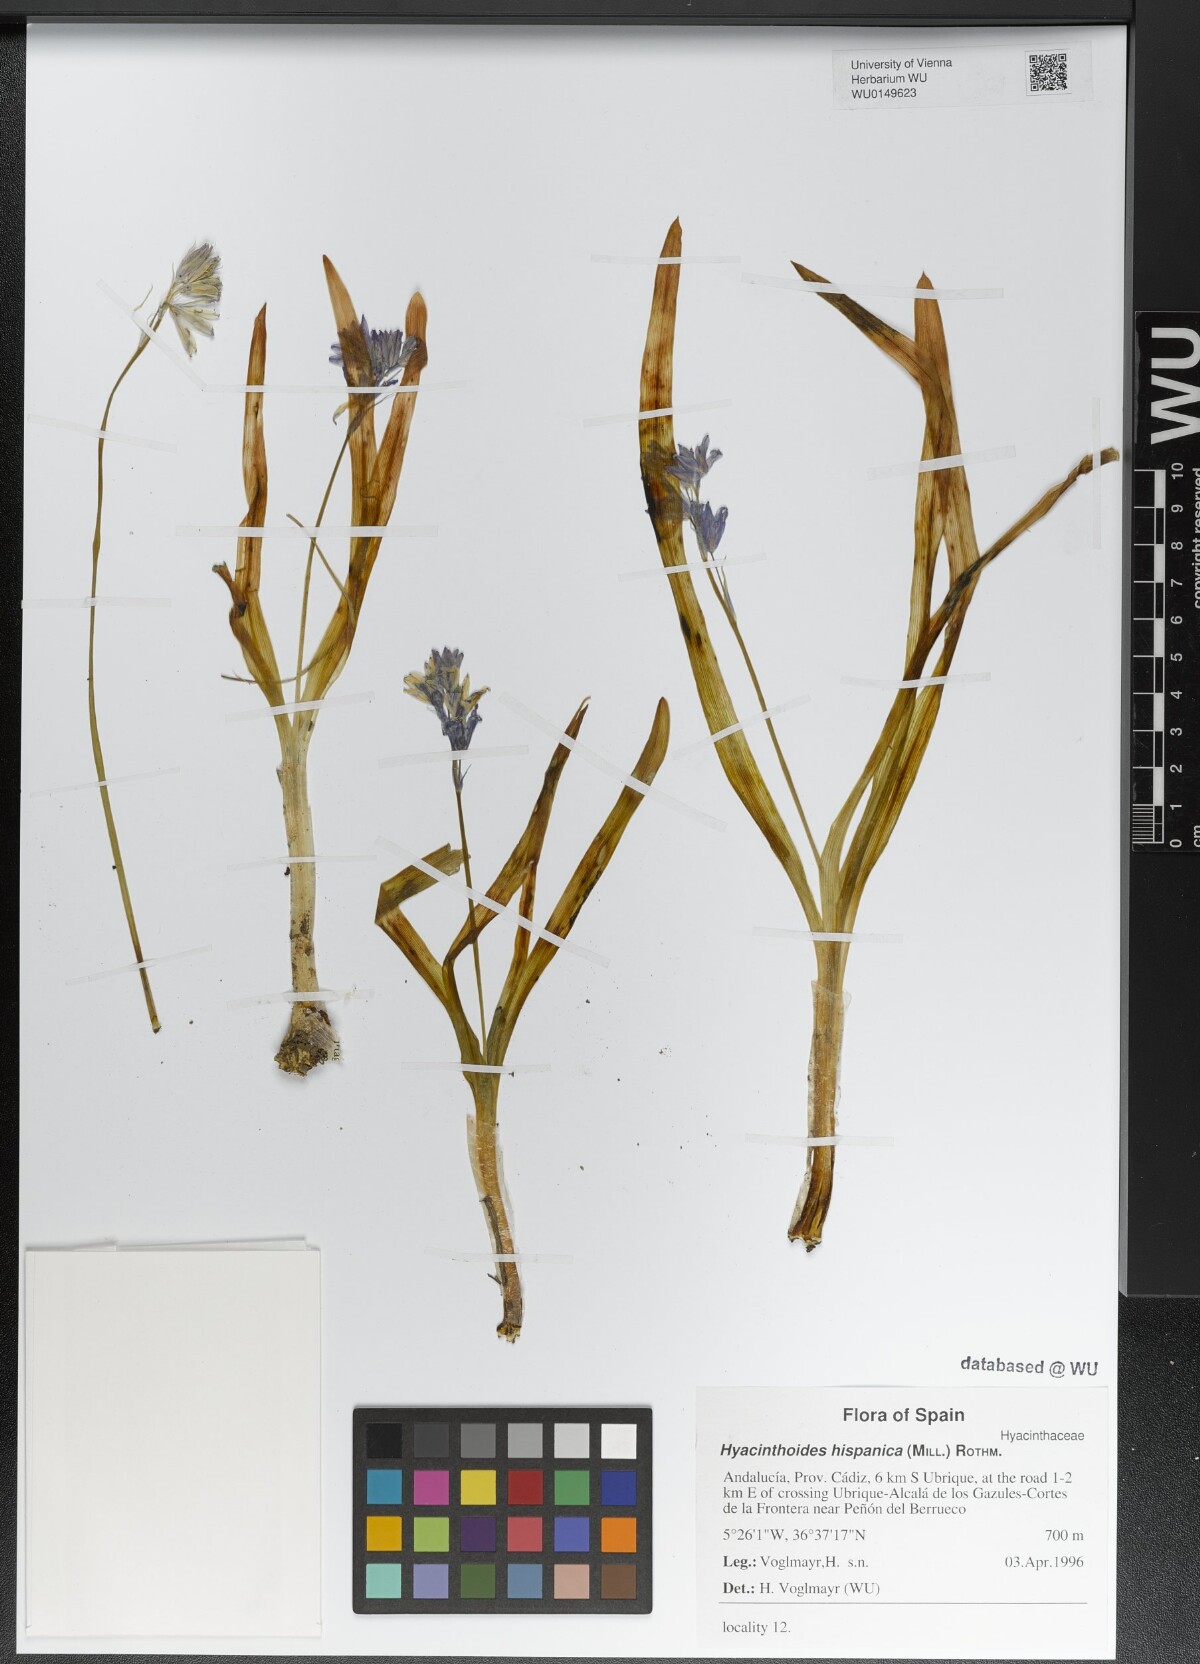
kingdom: Plantae
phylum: Tracheophyta
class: Liliopsida
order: Asparagales
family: Asparagaceae
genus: Hyacinthoides
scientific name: Hyacinthoides hispanica
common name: Spanish bluebell
